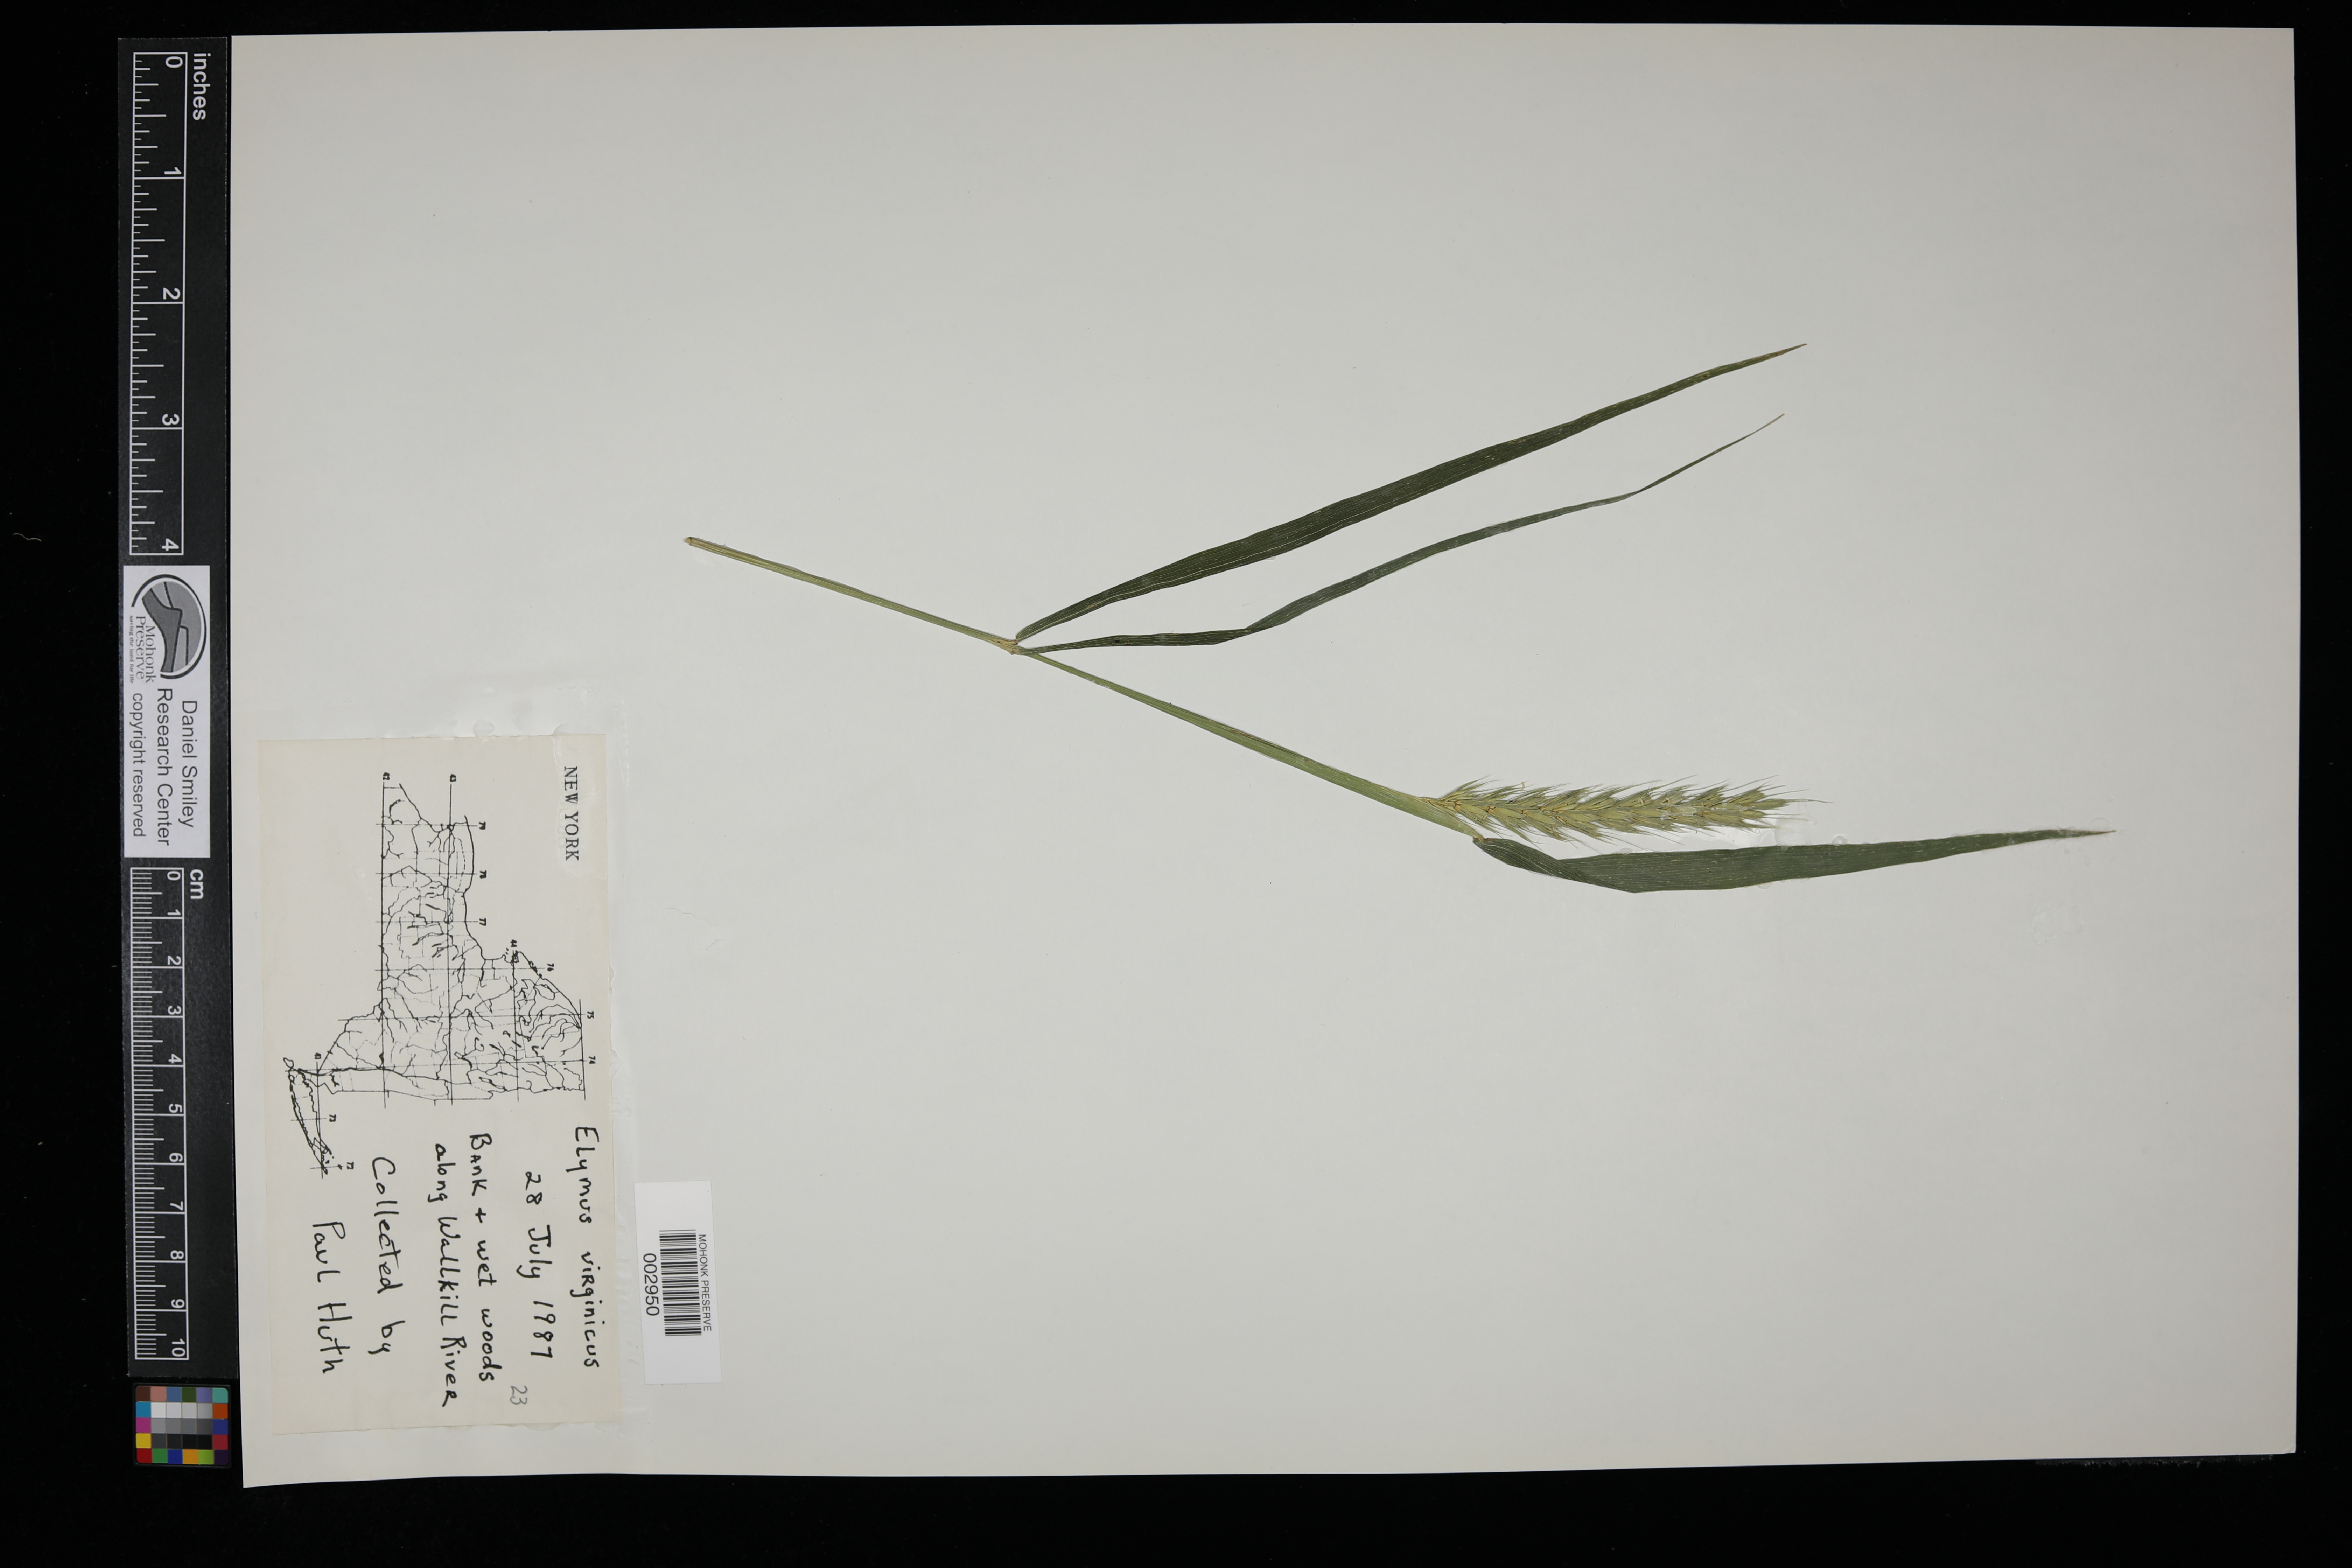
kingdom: Plantae
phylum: Tracheophyta
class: Liliopsida
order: Poales
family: Poaceae
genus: Elymus
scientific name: Elymus virginicus
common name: Common eastern wildrye
